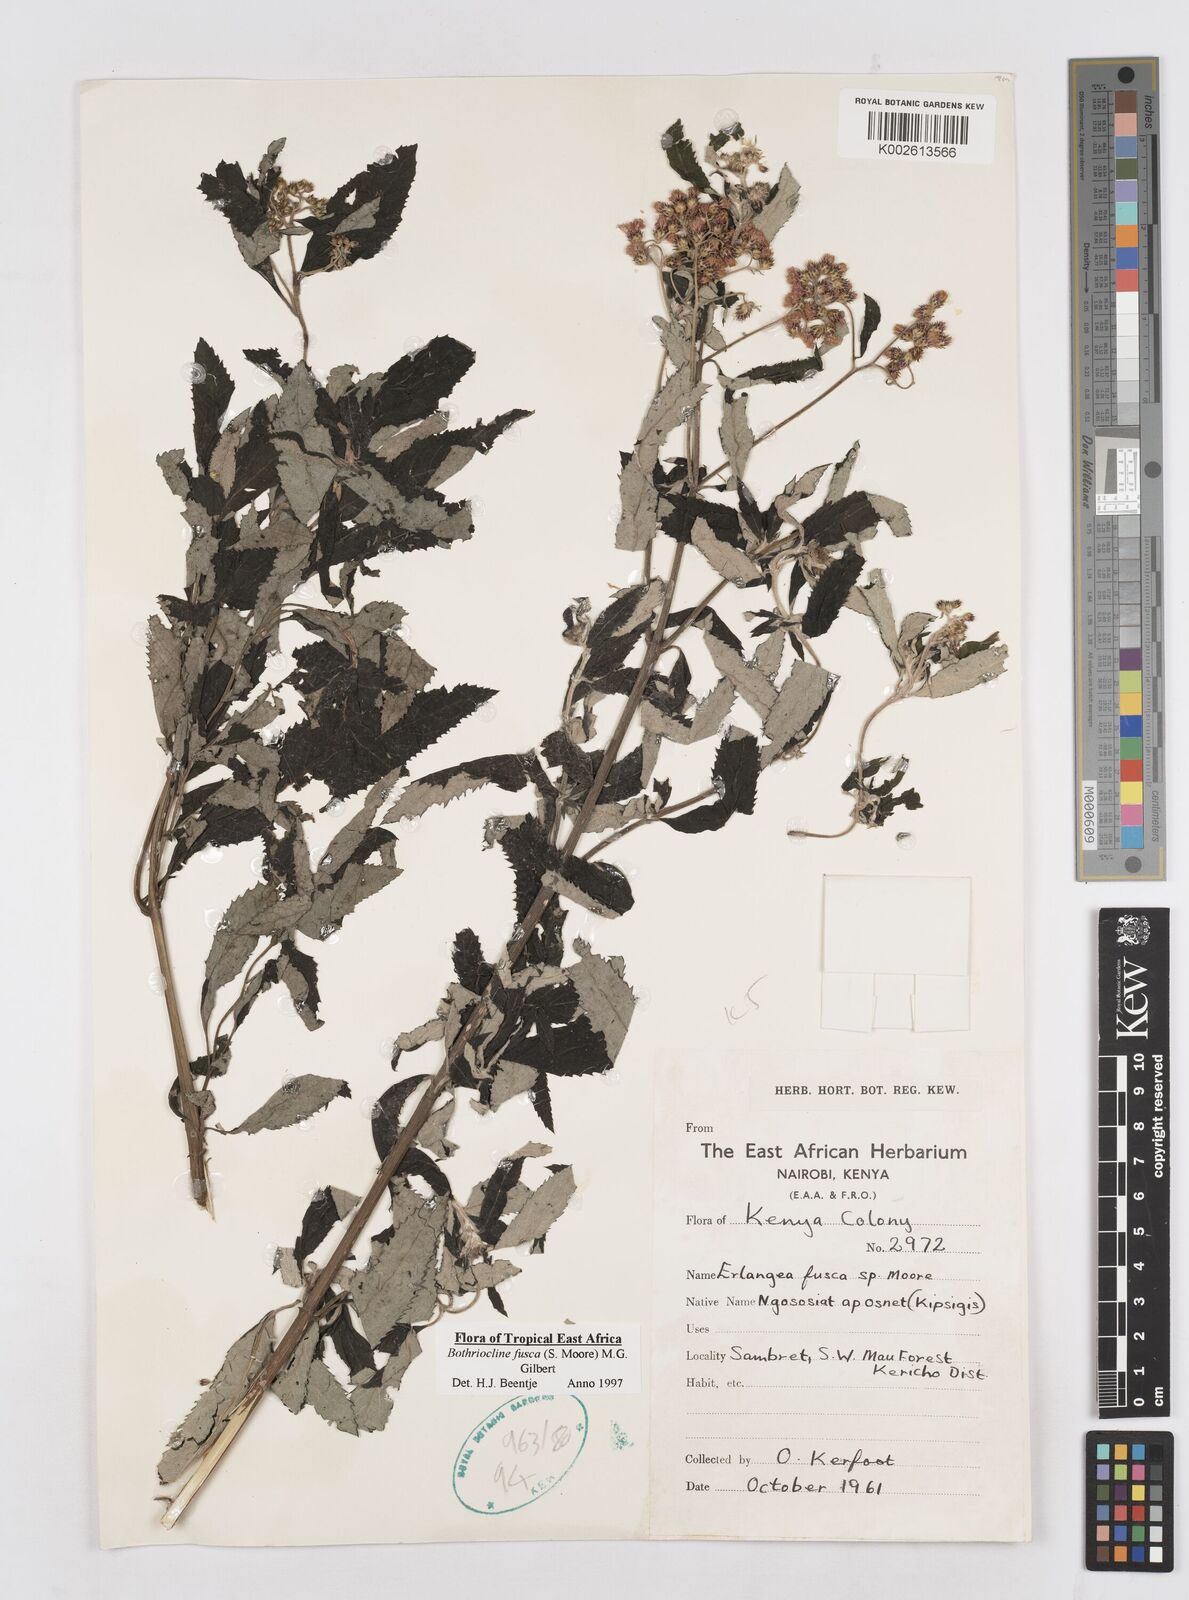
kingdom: Plantae
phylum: Tracheophyta
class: Magnoliopsida
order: Asterales
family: Asteraceae
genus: Bothriocline
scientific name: Bothriocline fusca
